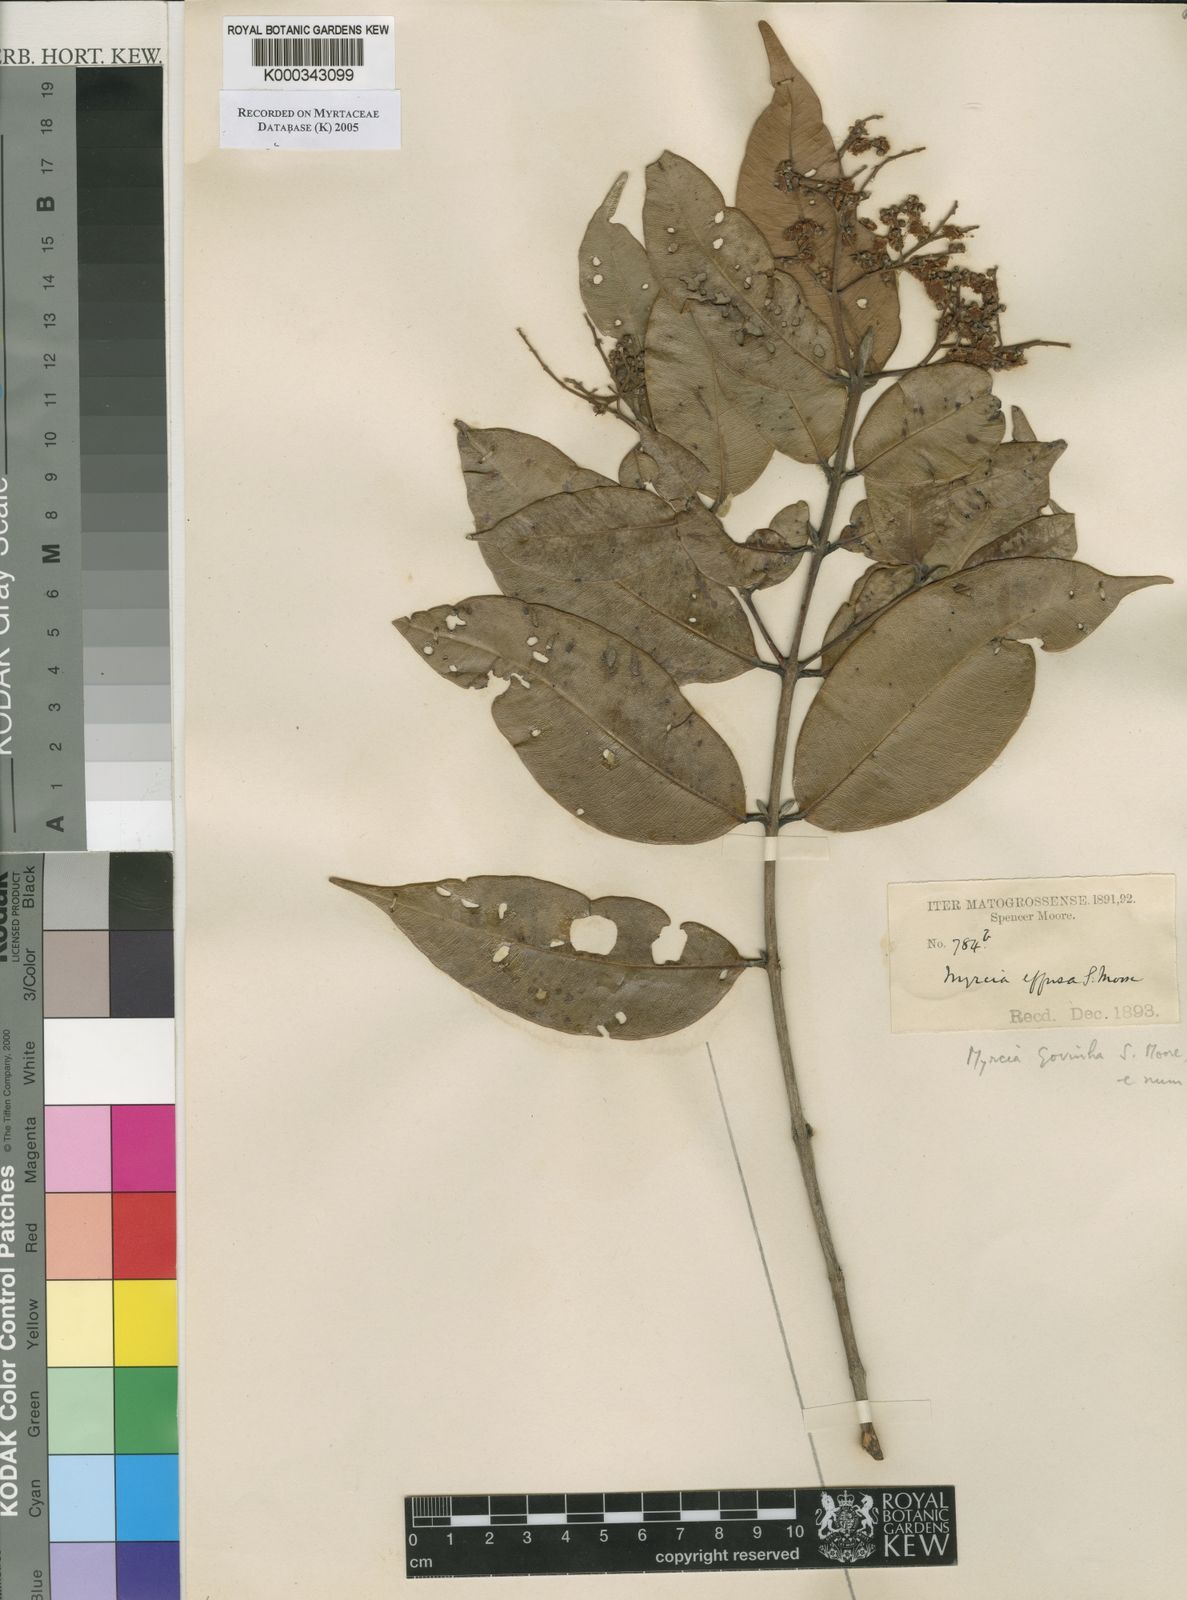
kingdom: Plantae
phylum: Tracheophyta
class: Magnoliopsida
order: Myrtales
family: Myrtaceae
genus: Myrcia
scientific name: Myrcia govinha
